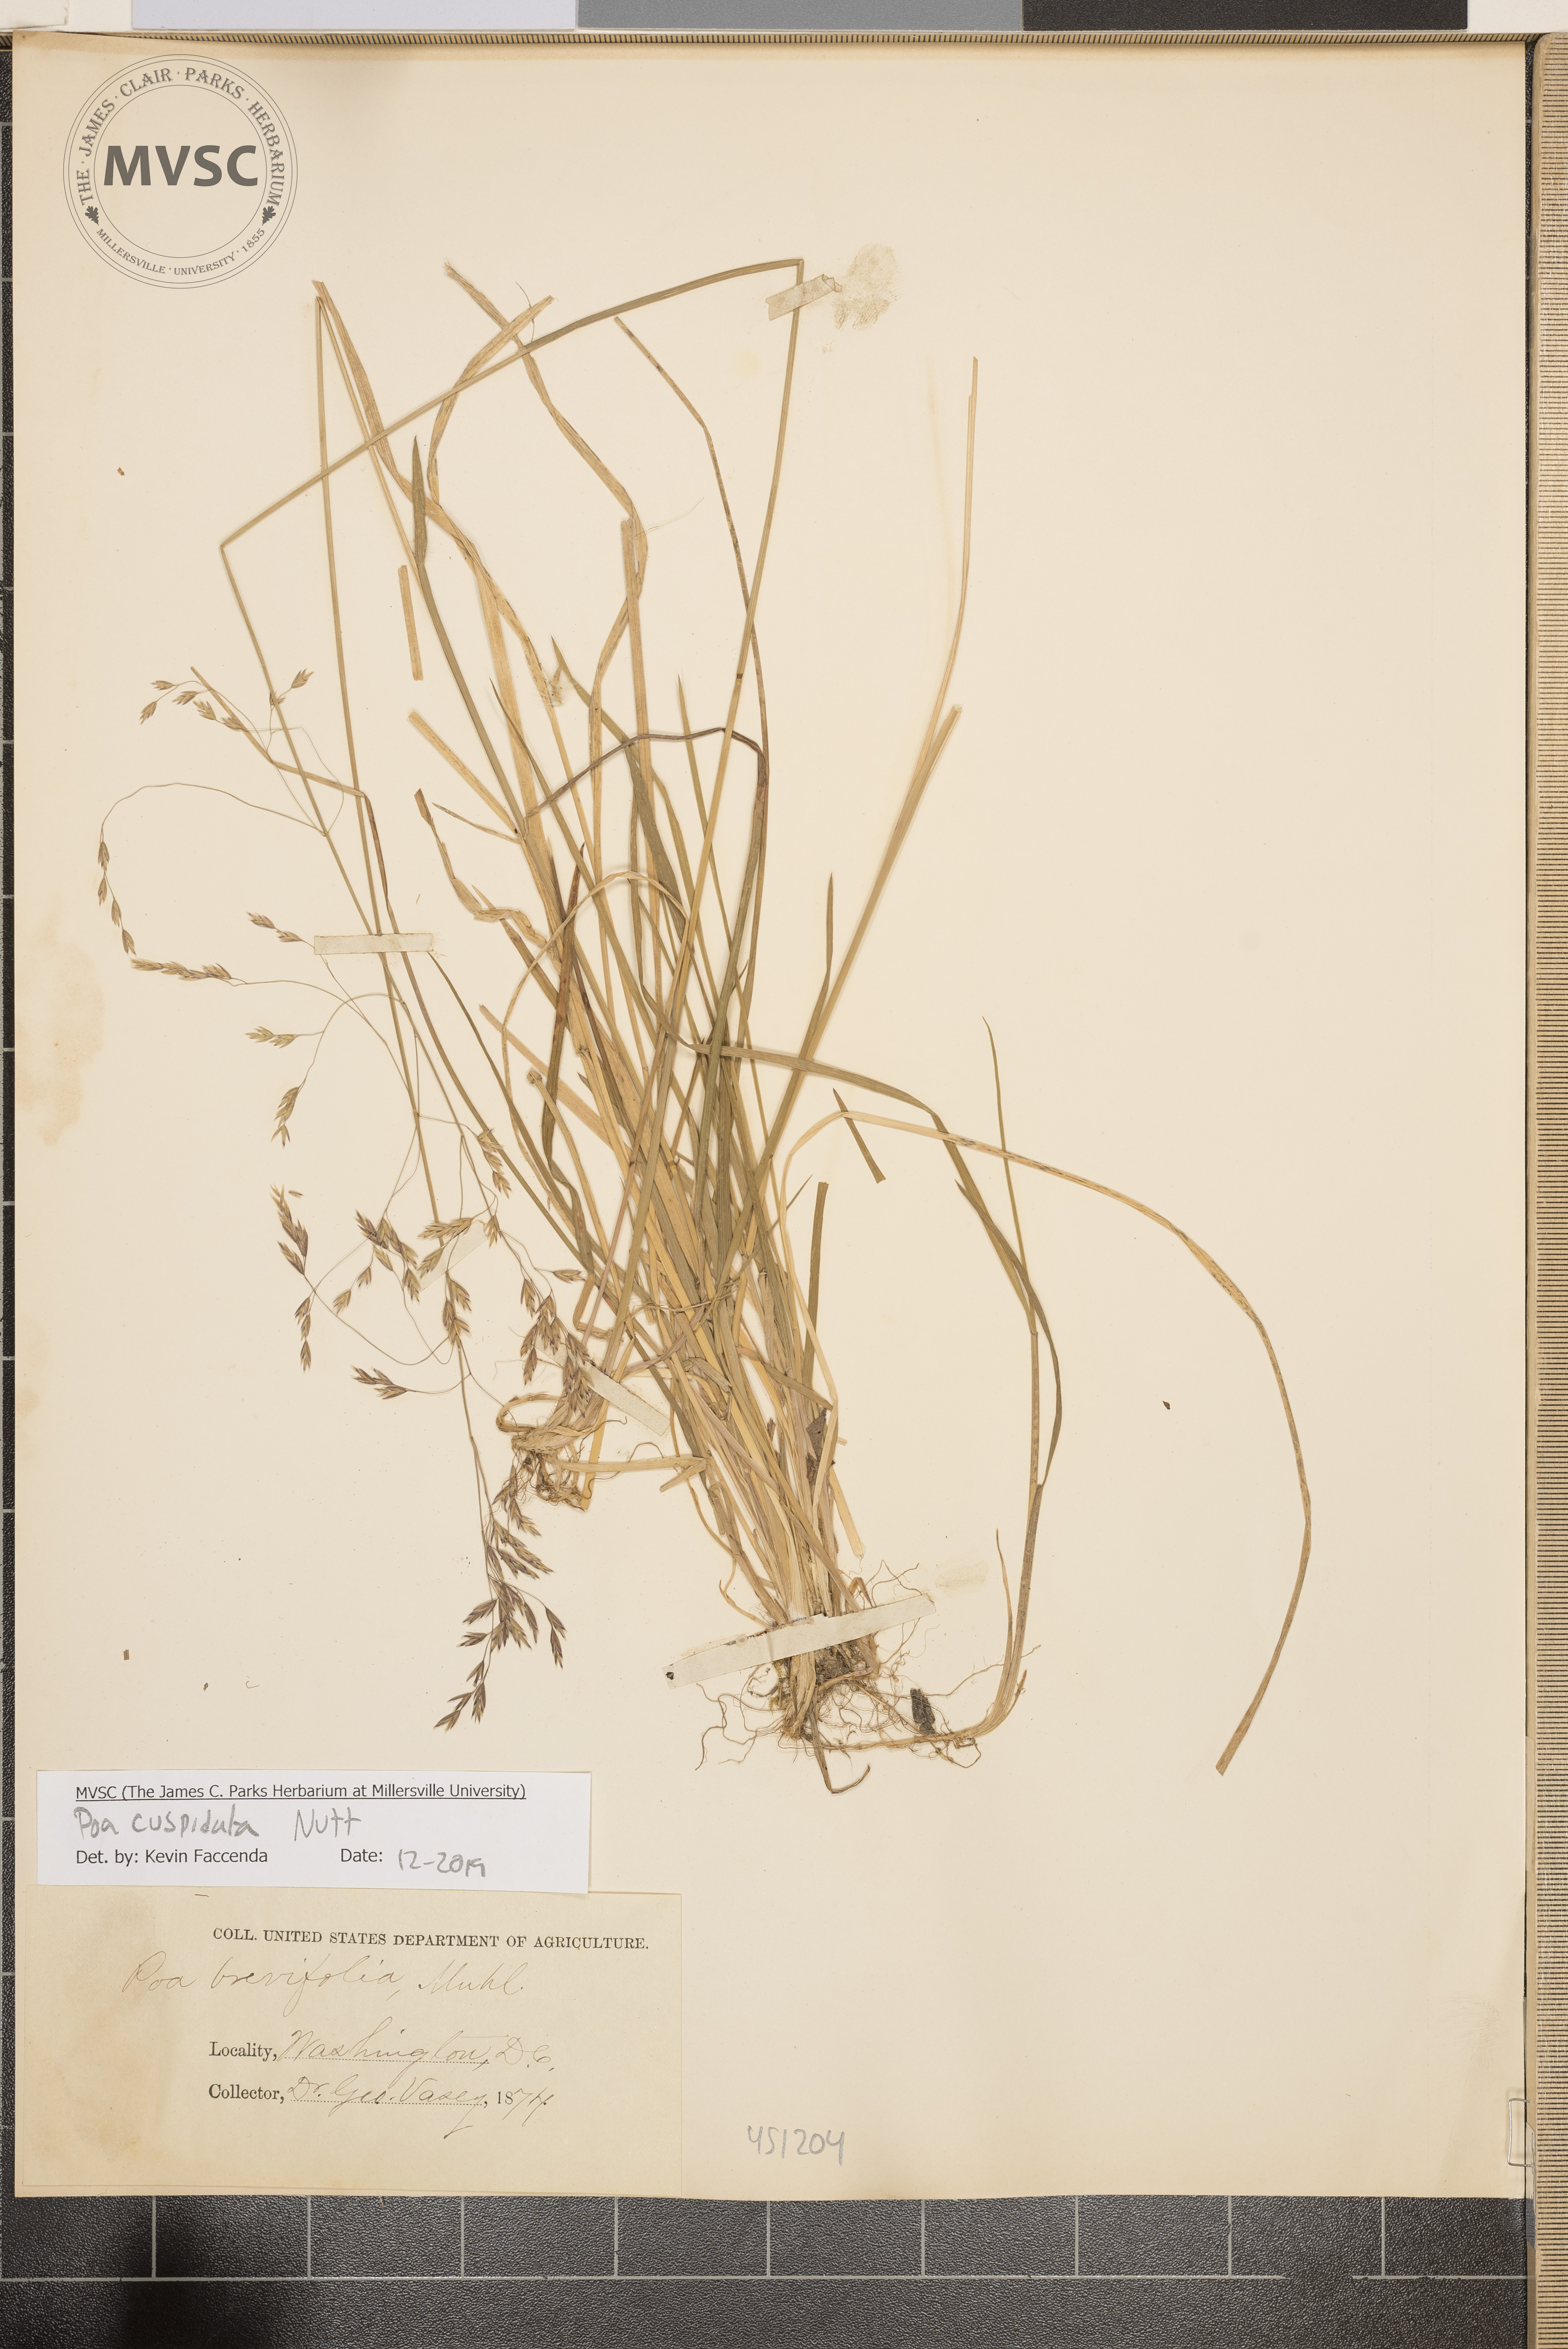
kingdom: Plantae
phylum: Tracheophyta
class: Liliopsida
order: Poales
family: Poaceae
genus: Poa
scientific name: Poa cuspidata
